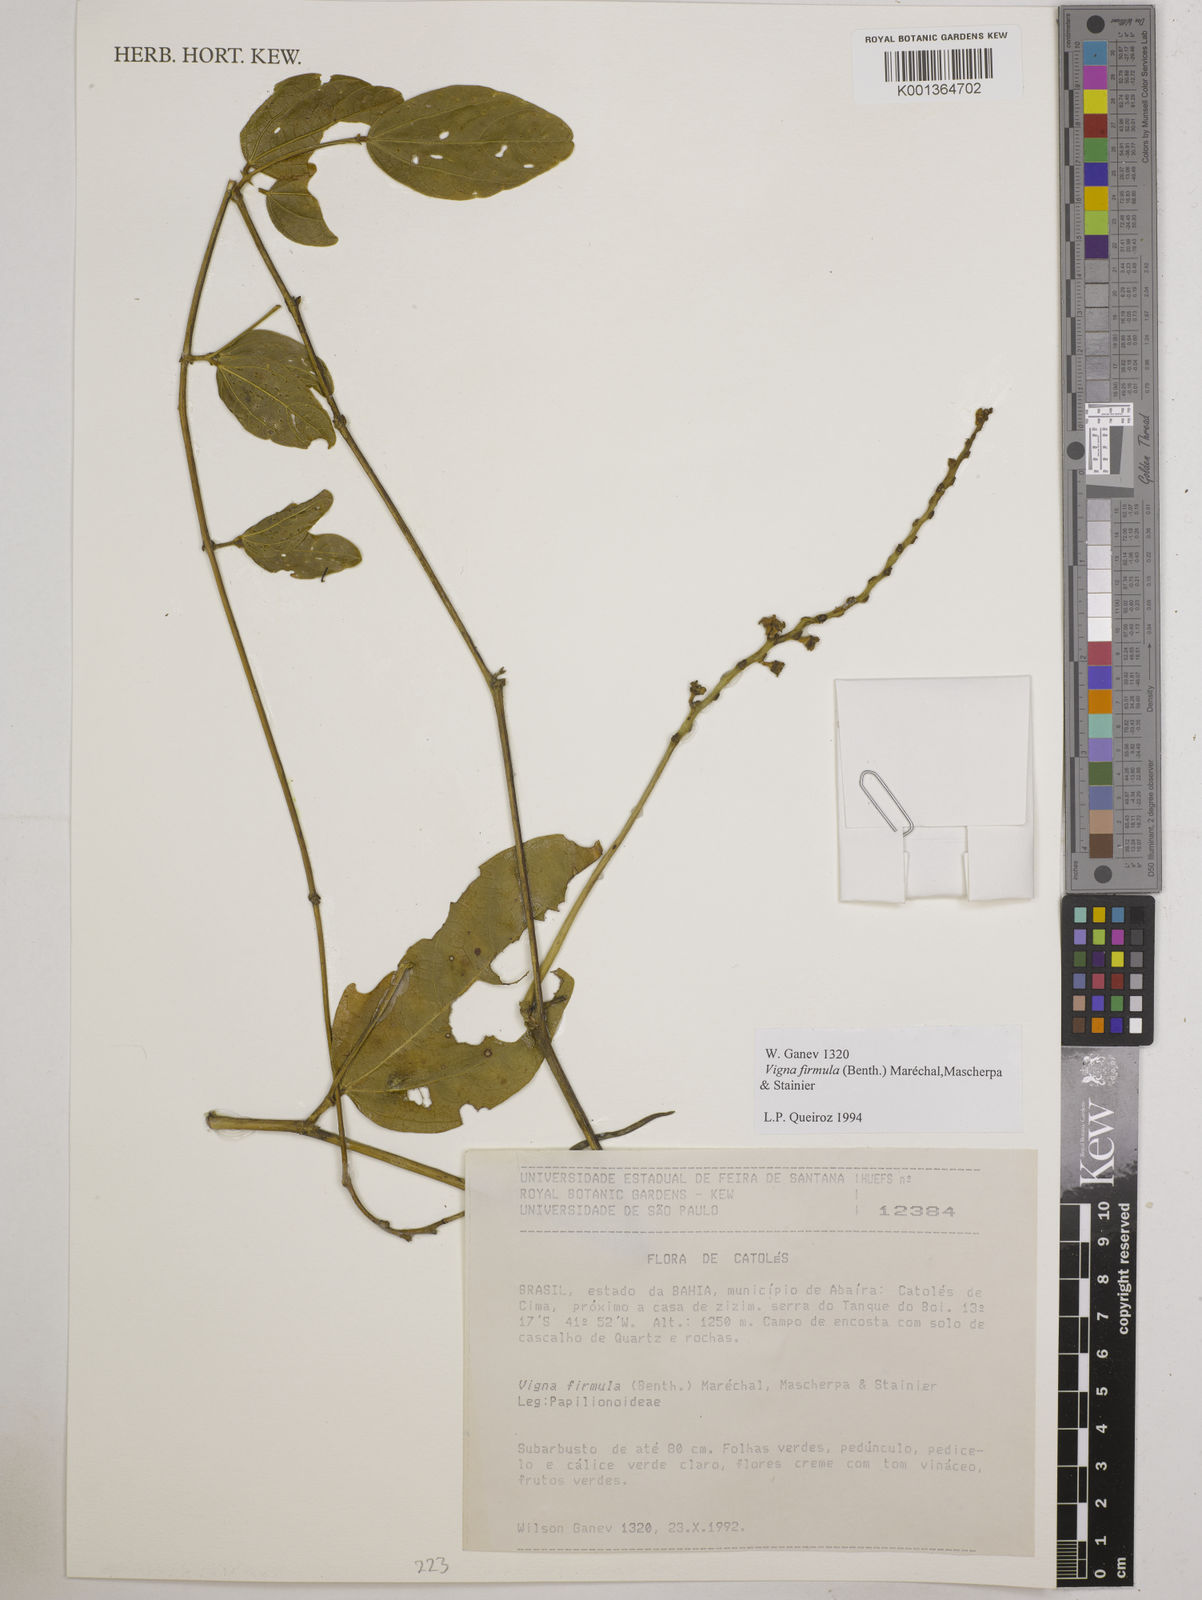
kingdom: Plantae
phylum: Tracheophyta
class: Magnoliopsida
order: Fabales
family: Fabaceae
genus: Ancistrotropis
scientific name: Ancistrotropis firmula
